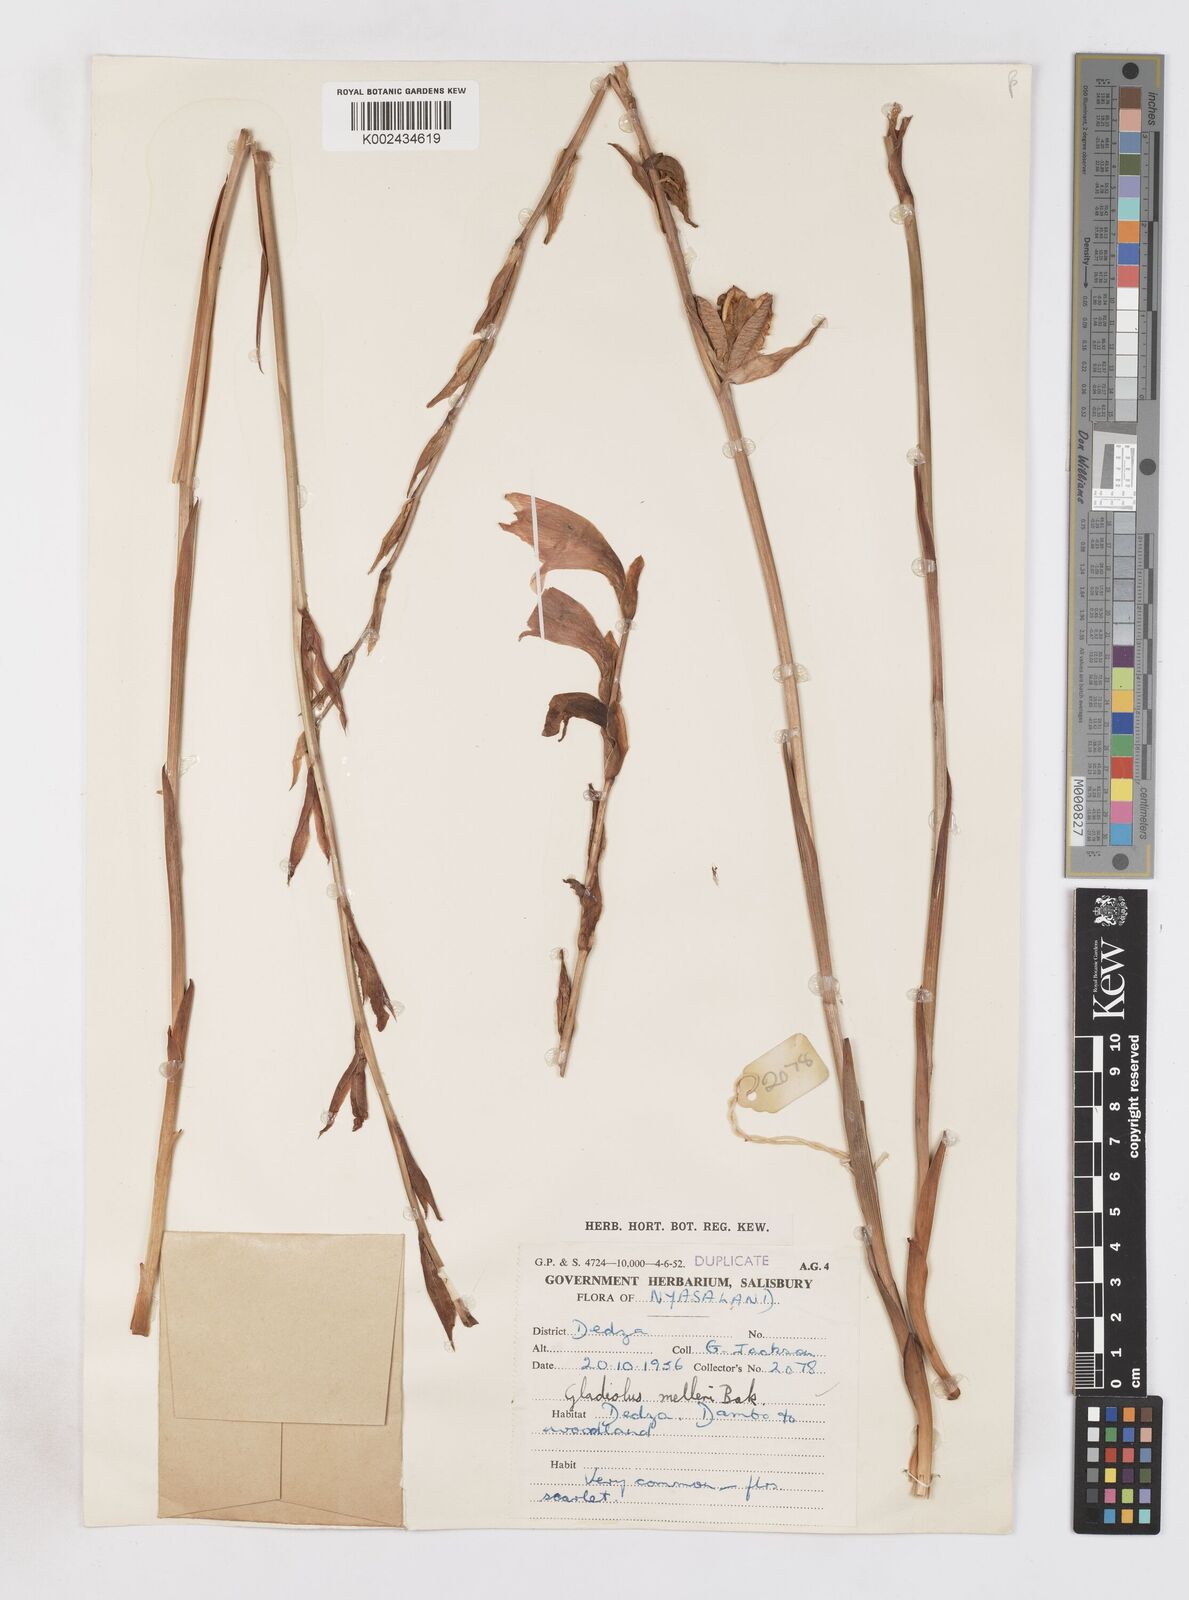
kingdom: Plantae
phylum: Tracheophyta
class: Liliopsida
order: Asparagales
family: Iridaceae
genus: Gladiolus
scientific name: Gladiolus melleri
